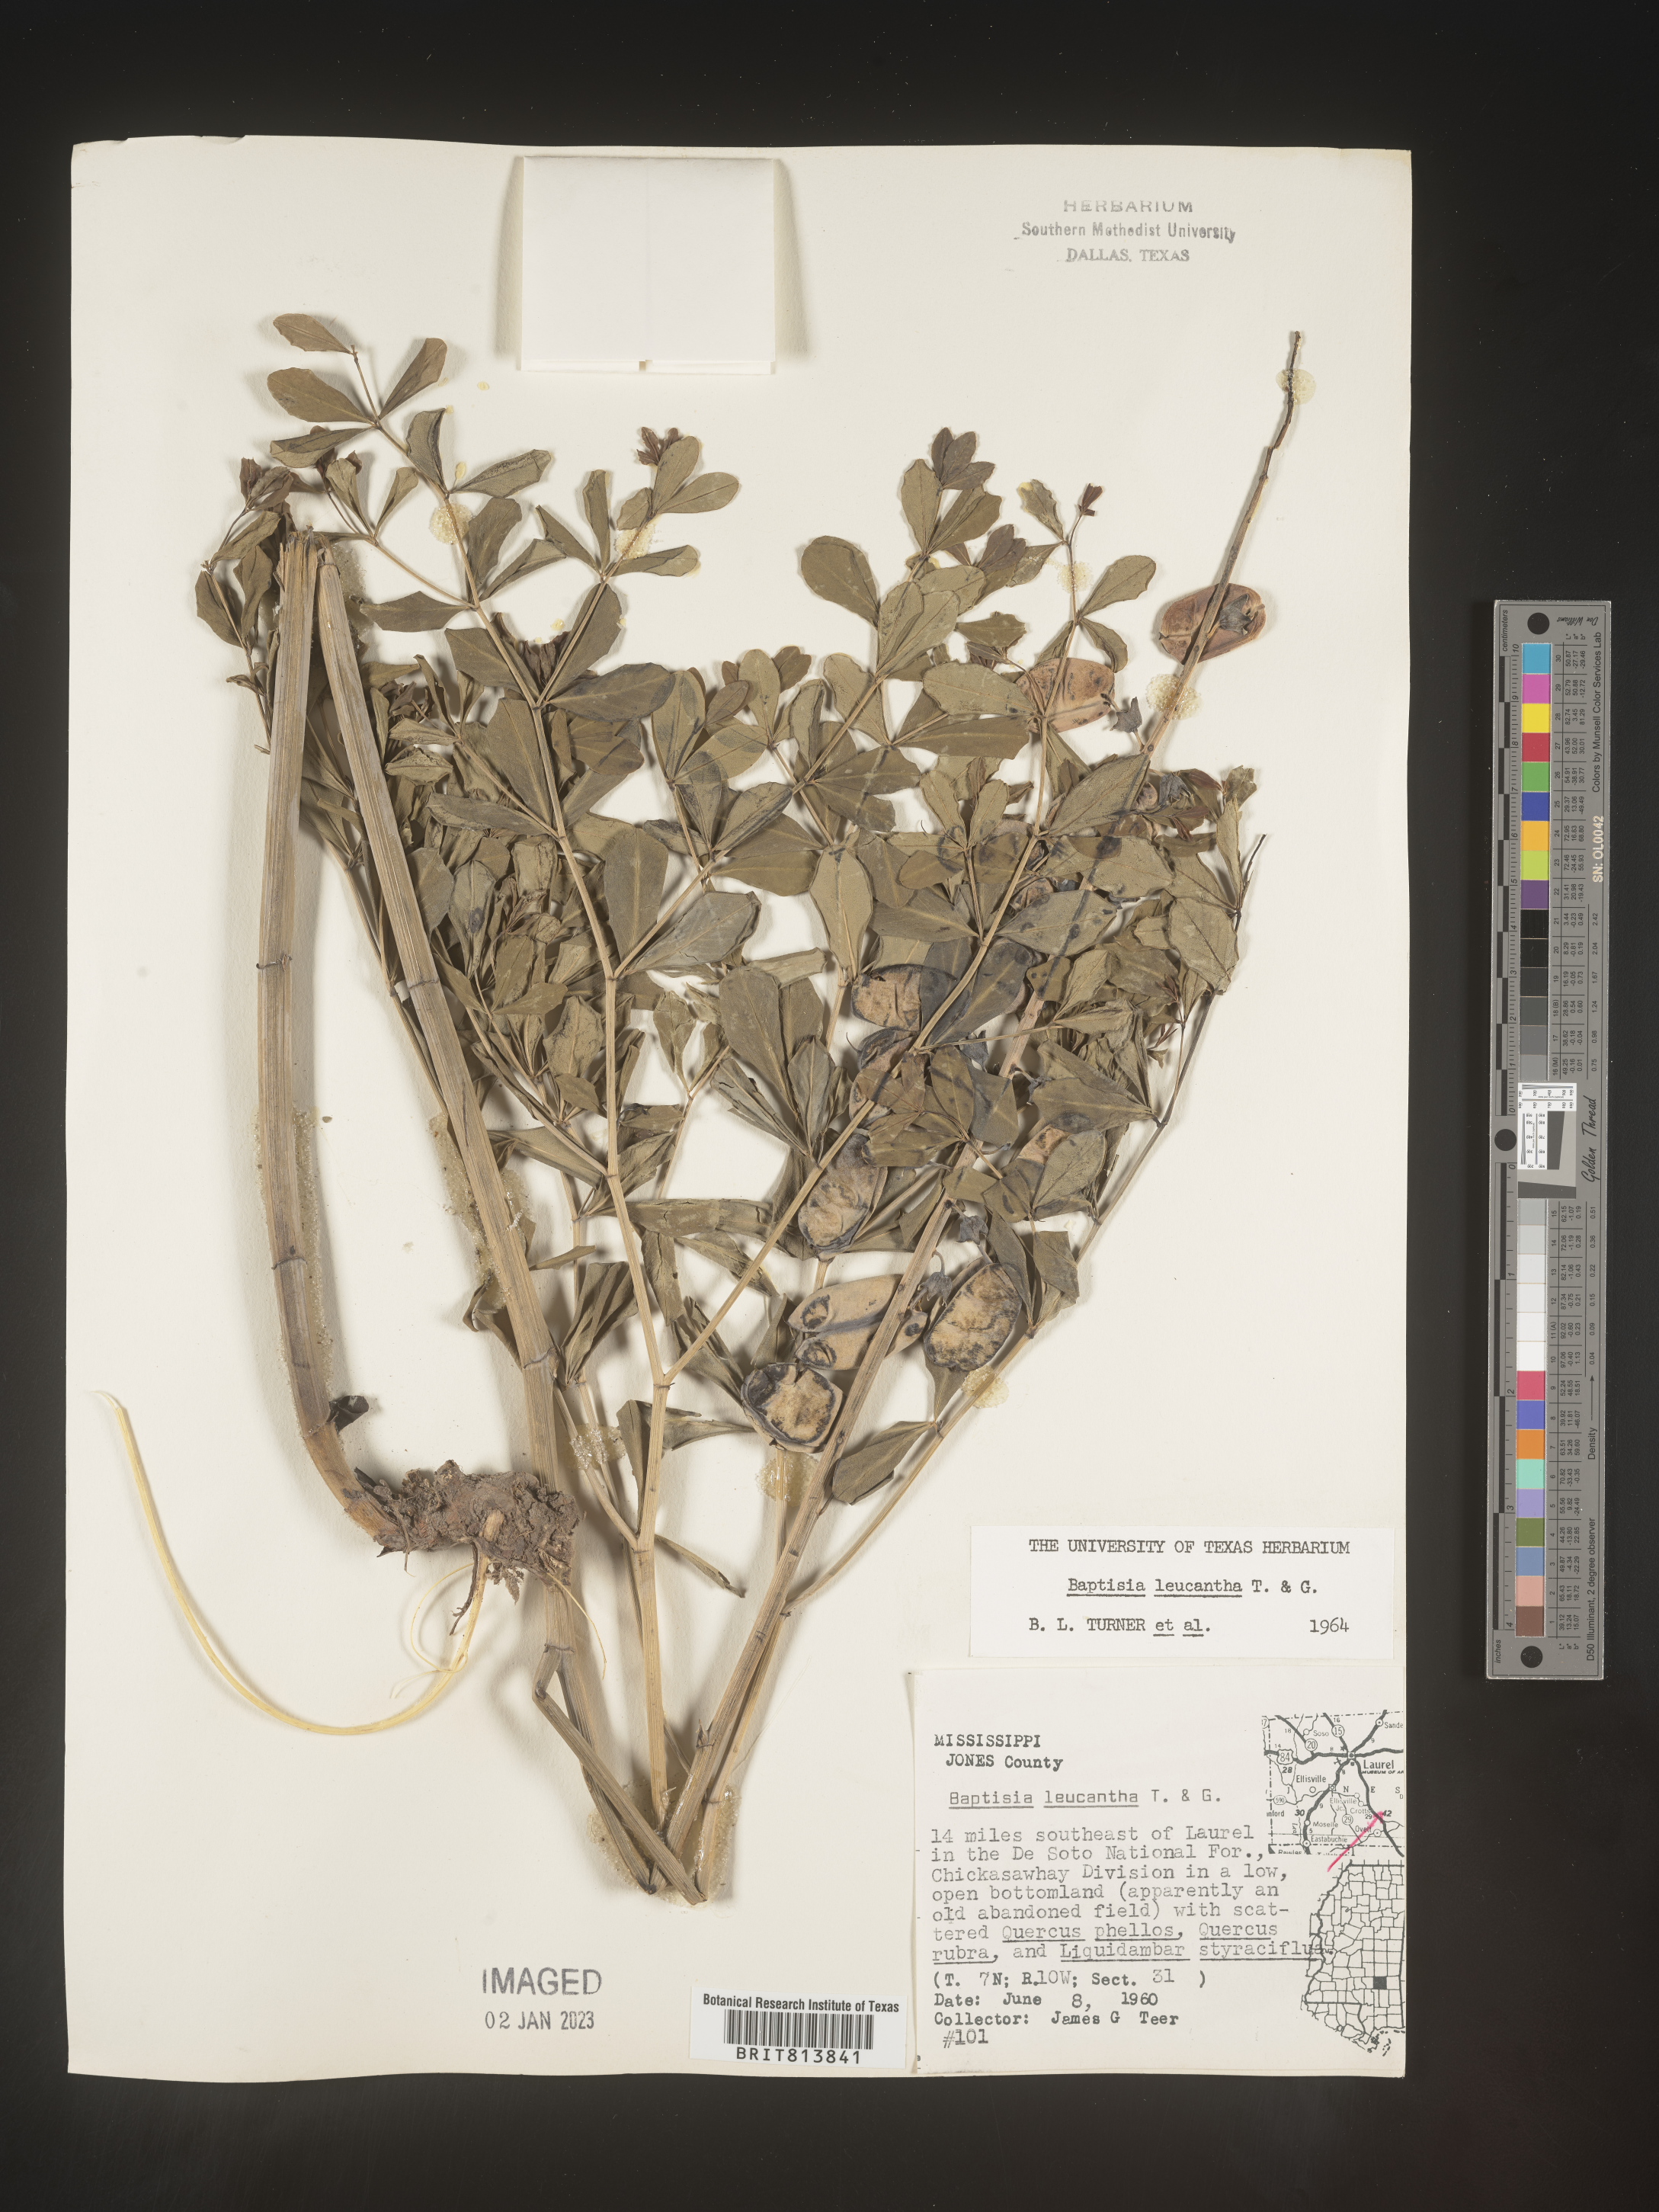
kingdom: Plantae
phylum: Tracheophyta
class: Magnoliopsida
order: Fabales
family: Fabaceae
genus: Baptisia
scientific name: Baptisia alba
